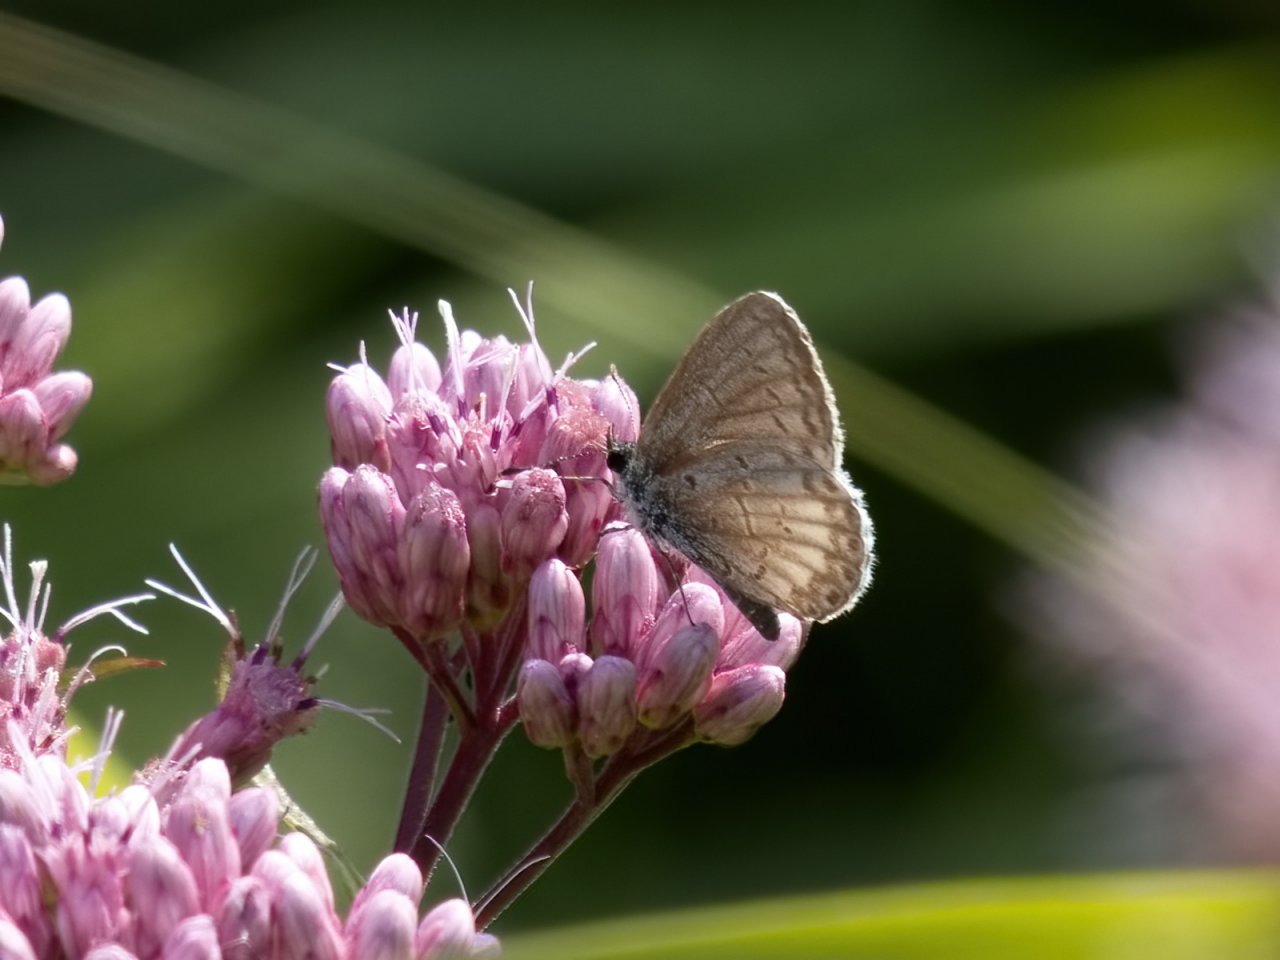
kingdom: Animalia
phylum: Arthropoda
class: Insecta
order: Lepidoptera
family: Lycaenidae
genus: Celastrina
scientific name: Celastrina lucia
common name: Northern Spring Azure
